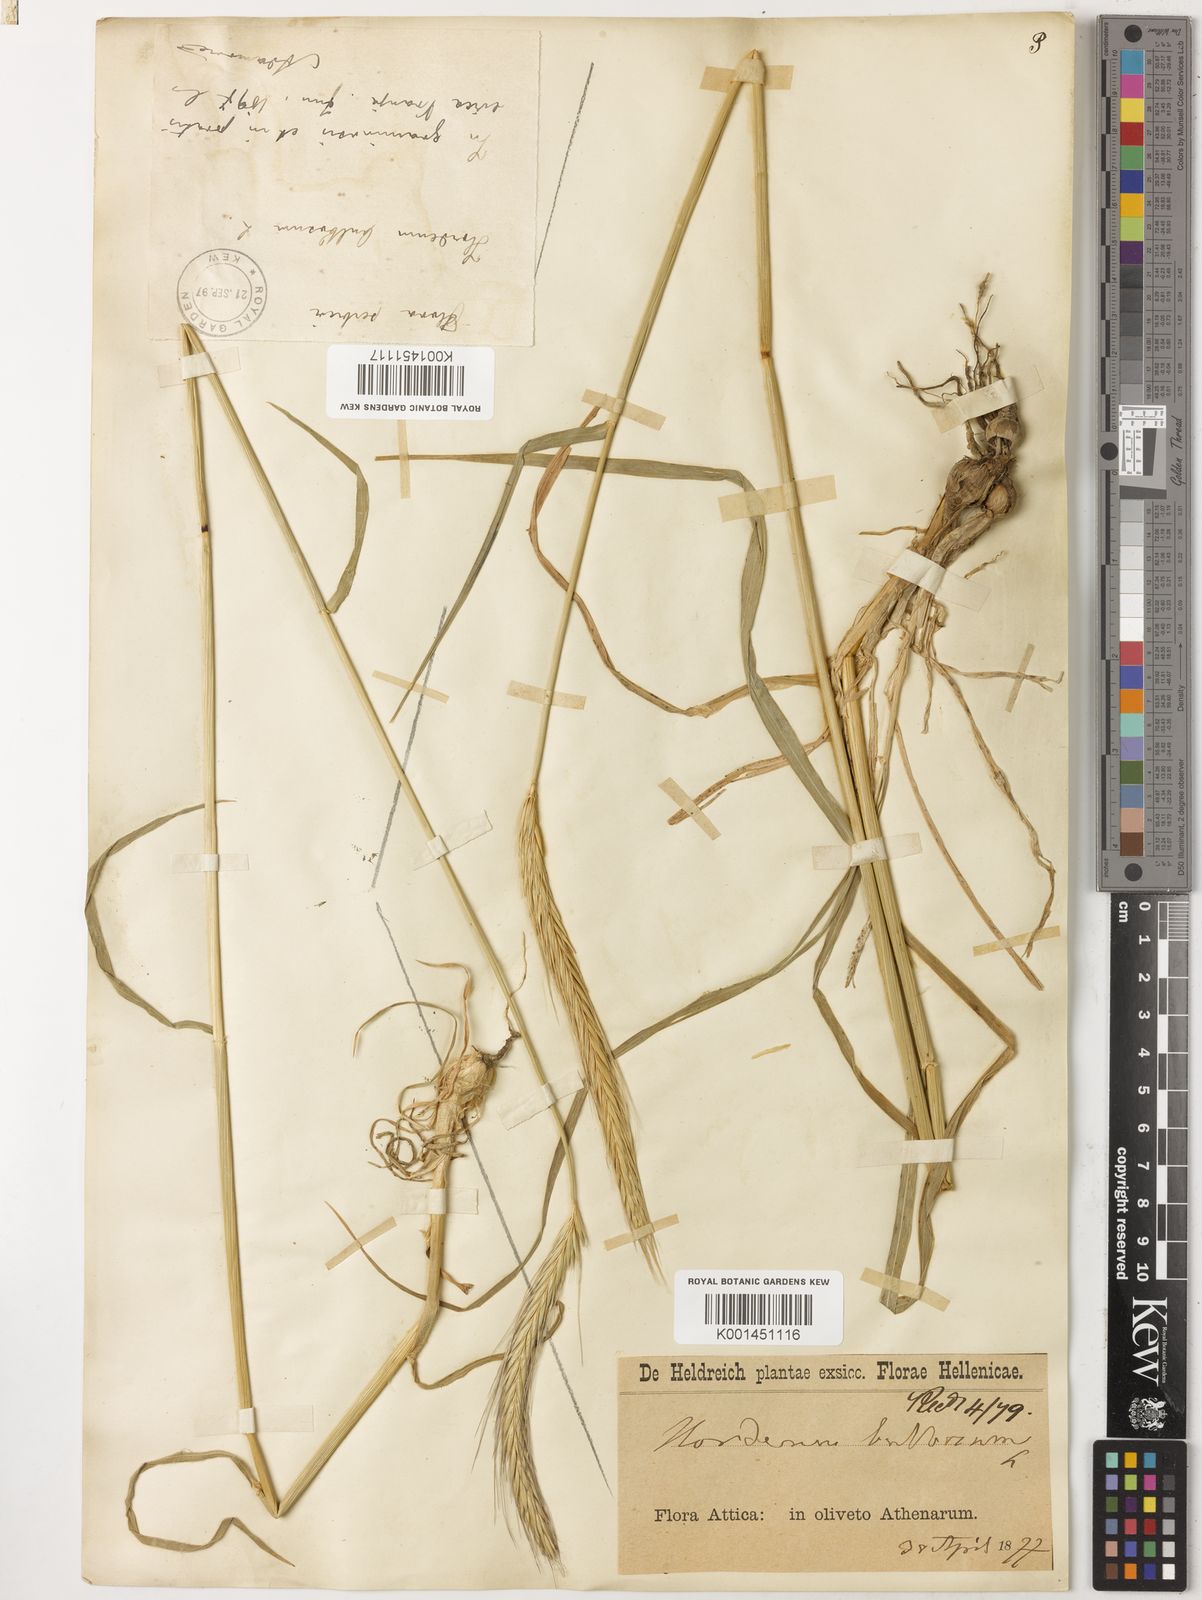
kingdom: Plantae
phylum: Tracheophyta
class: Liliopsida
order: Poales
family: Poaceae
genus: Hordeum
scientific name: Hordeum bulbosum
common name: Bulbous barley
